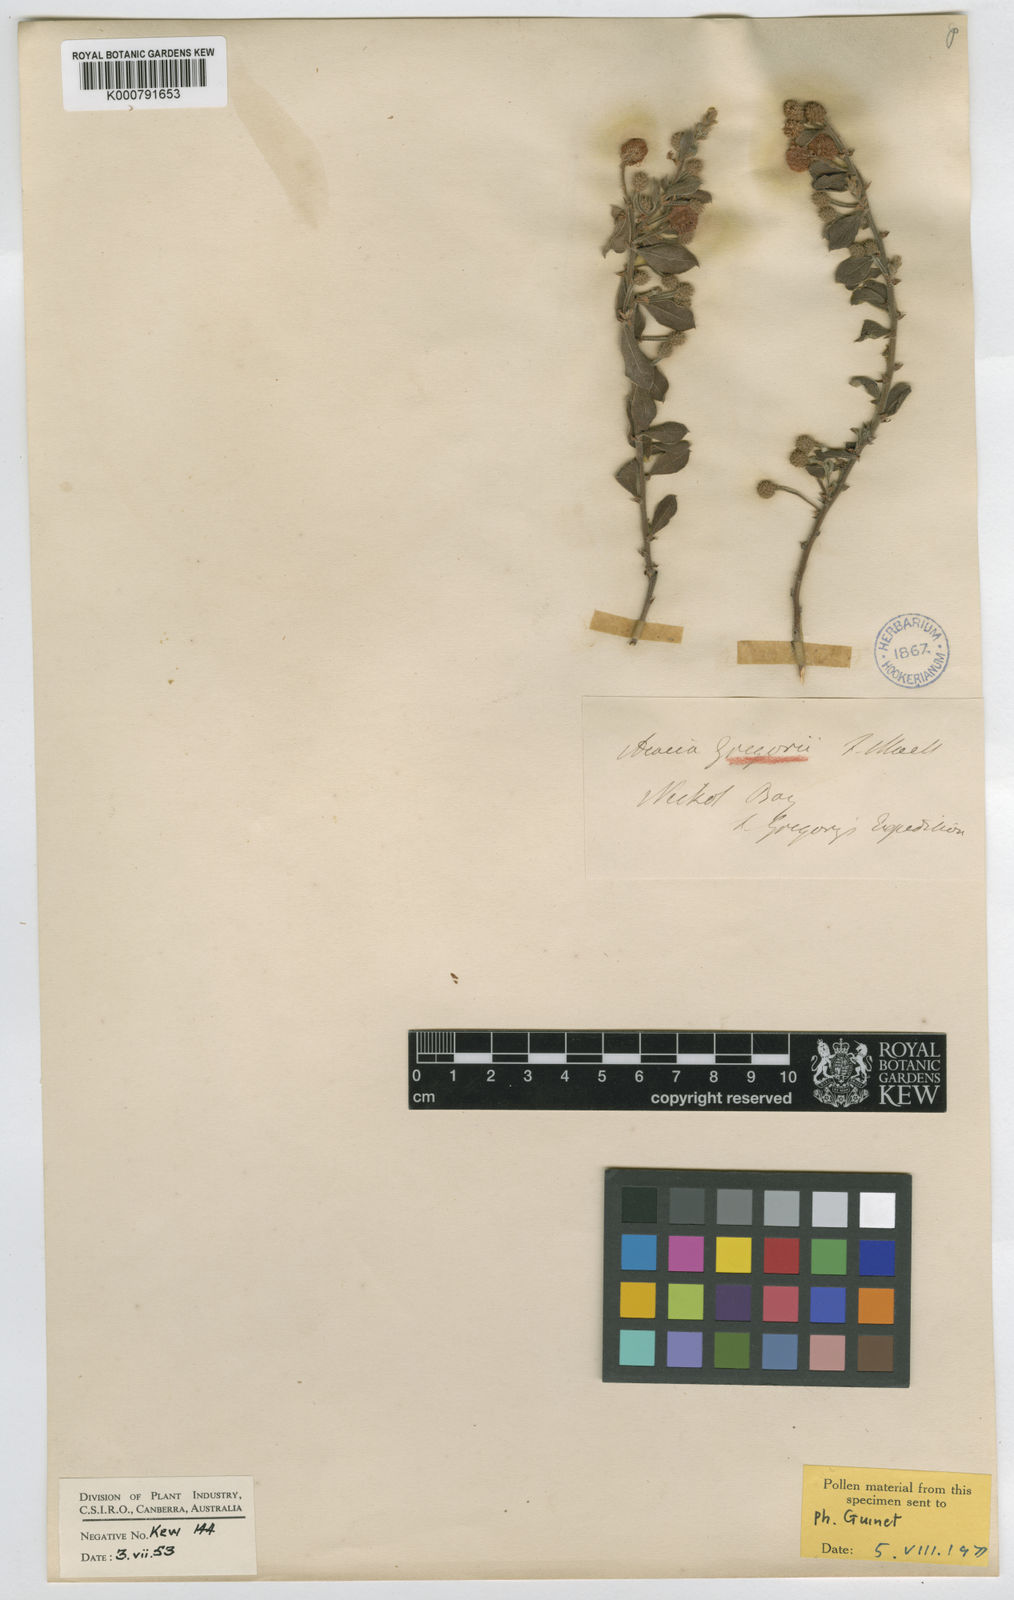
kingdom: Plantae
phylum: Tracheophyta
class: Magnoliopsida
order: Fabales
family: Fabaceae
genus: Acacia
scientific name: Acacia gregorii
